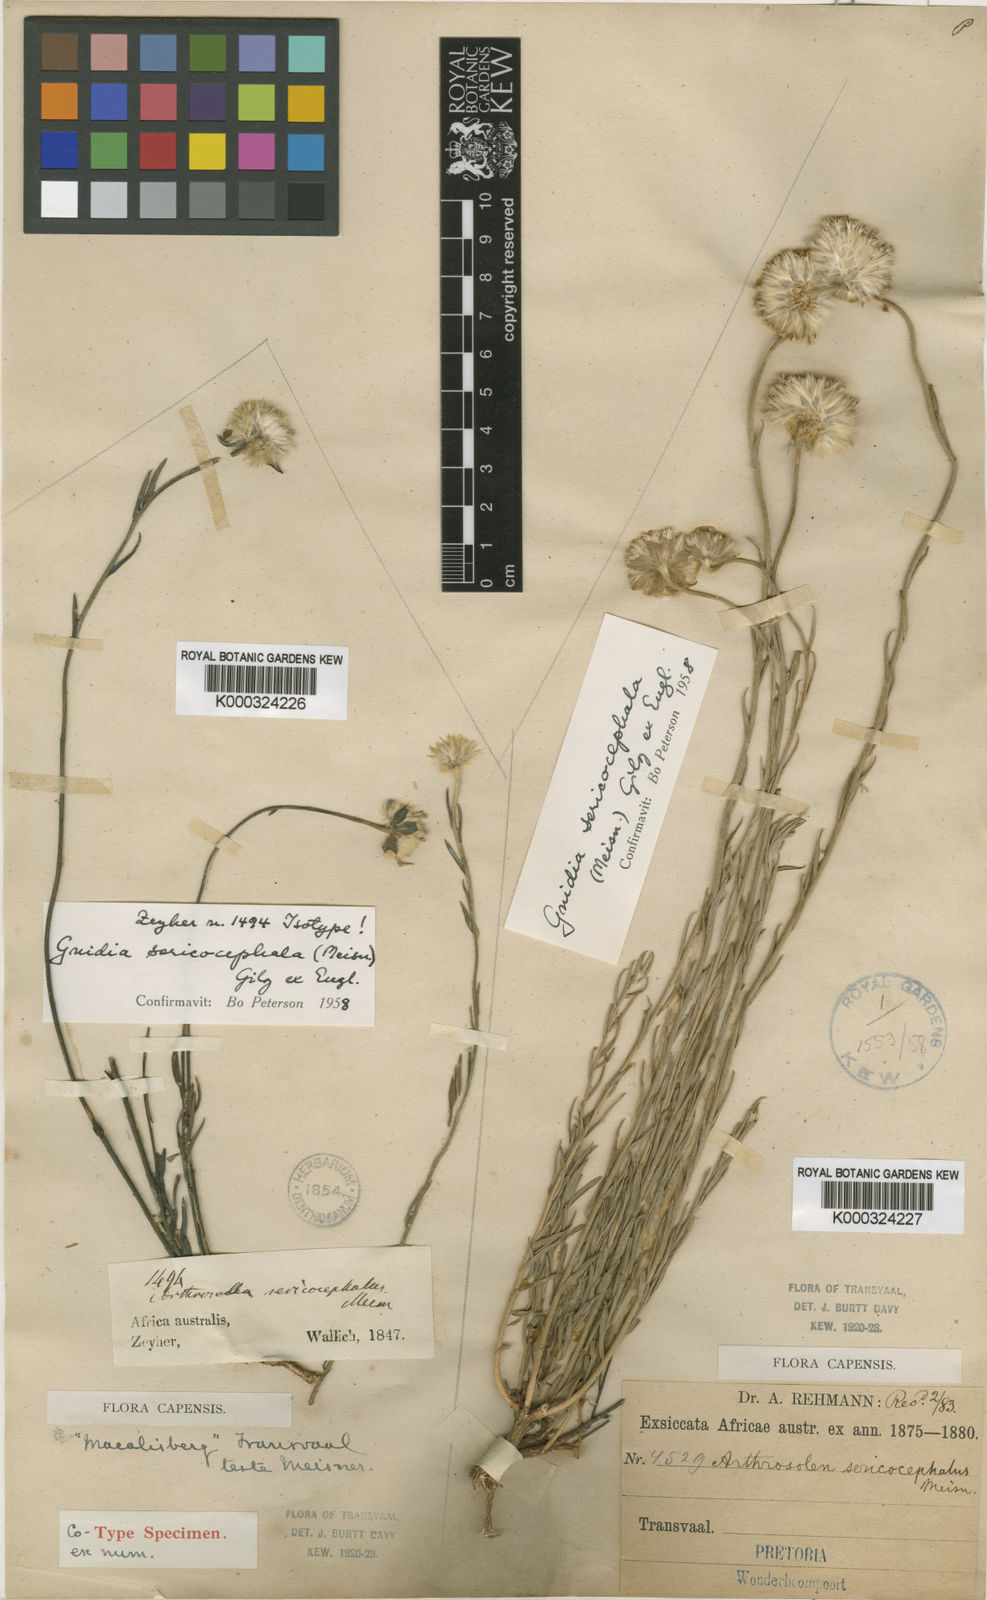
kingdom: Plantae
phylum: Tracheophyta
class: Magnoliopsida
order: Malvales
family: Thymelaeaceae
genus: Gnidia
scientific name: Gnidia sericocephala
